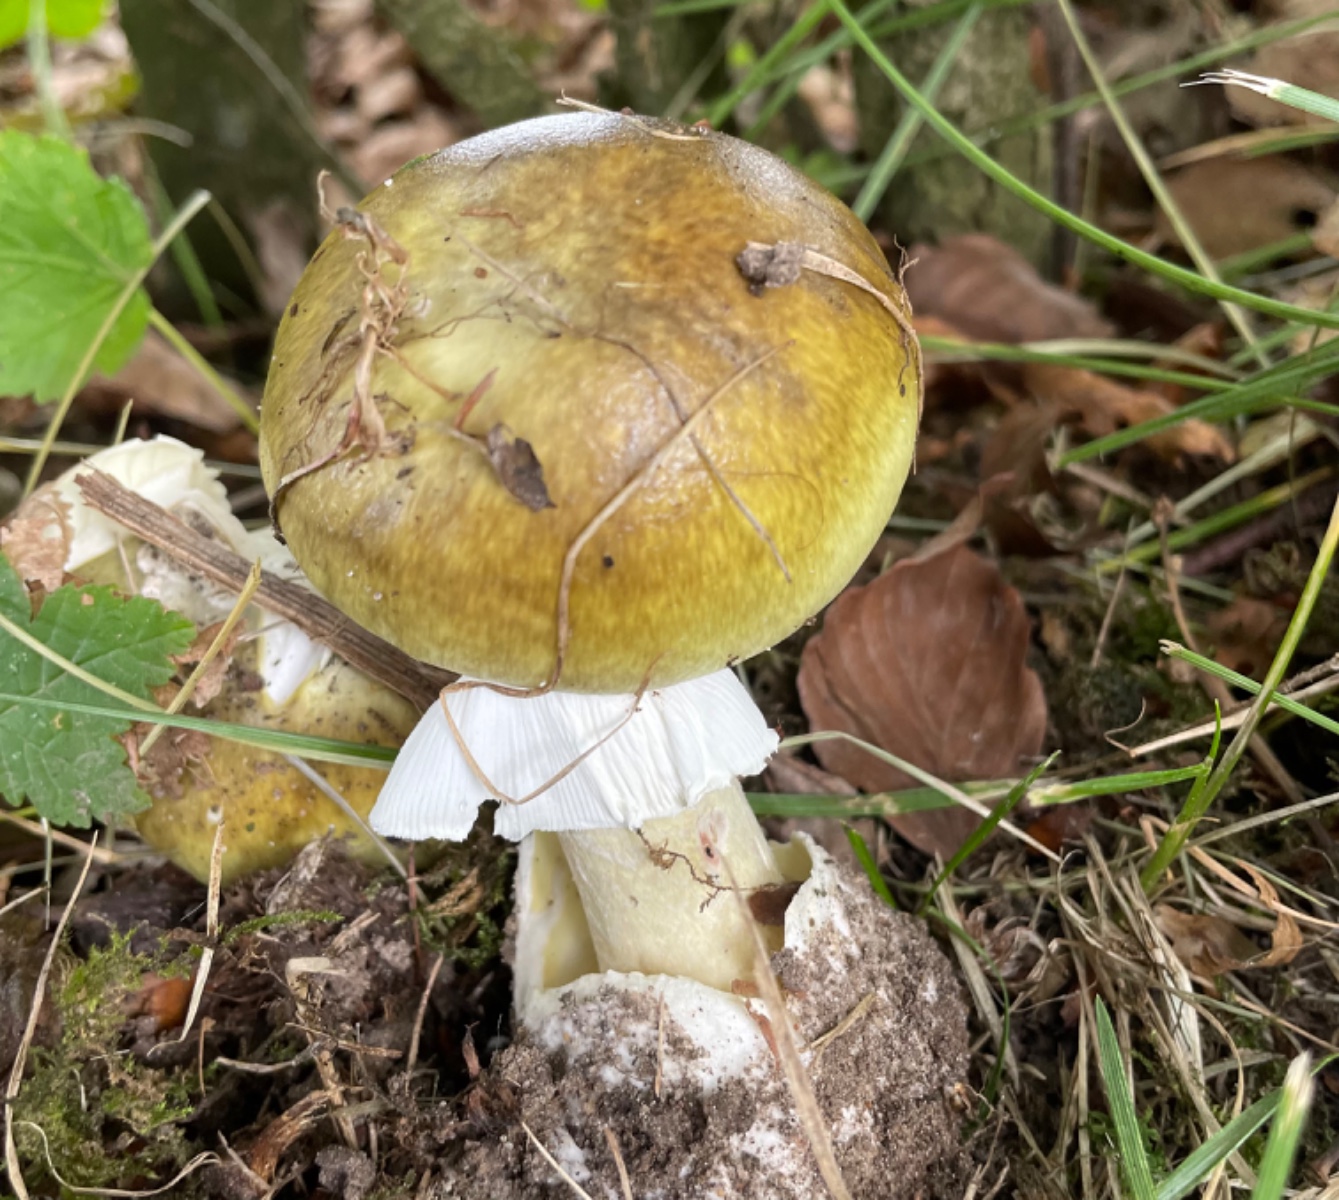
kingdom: Fungi
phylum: Basidiomycota
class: Agaricomycetes
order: Agaricales
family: Amanitaceae
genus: Amanita
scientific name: Amanita phalloides
